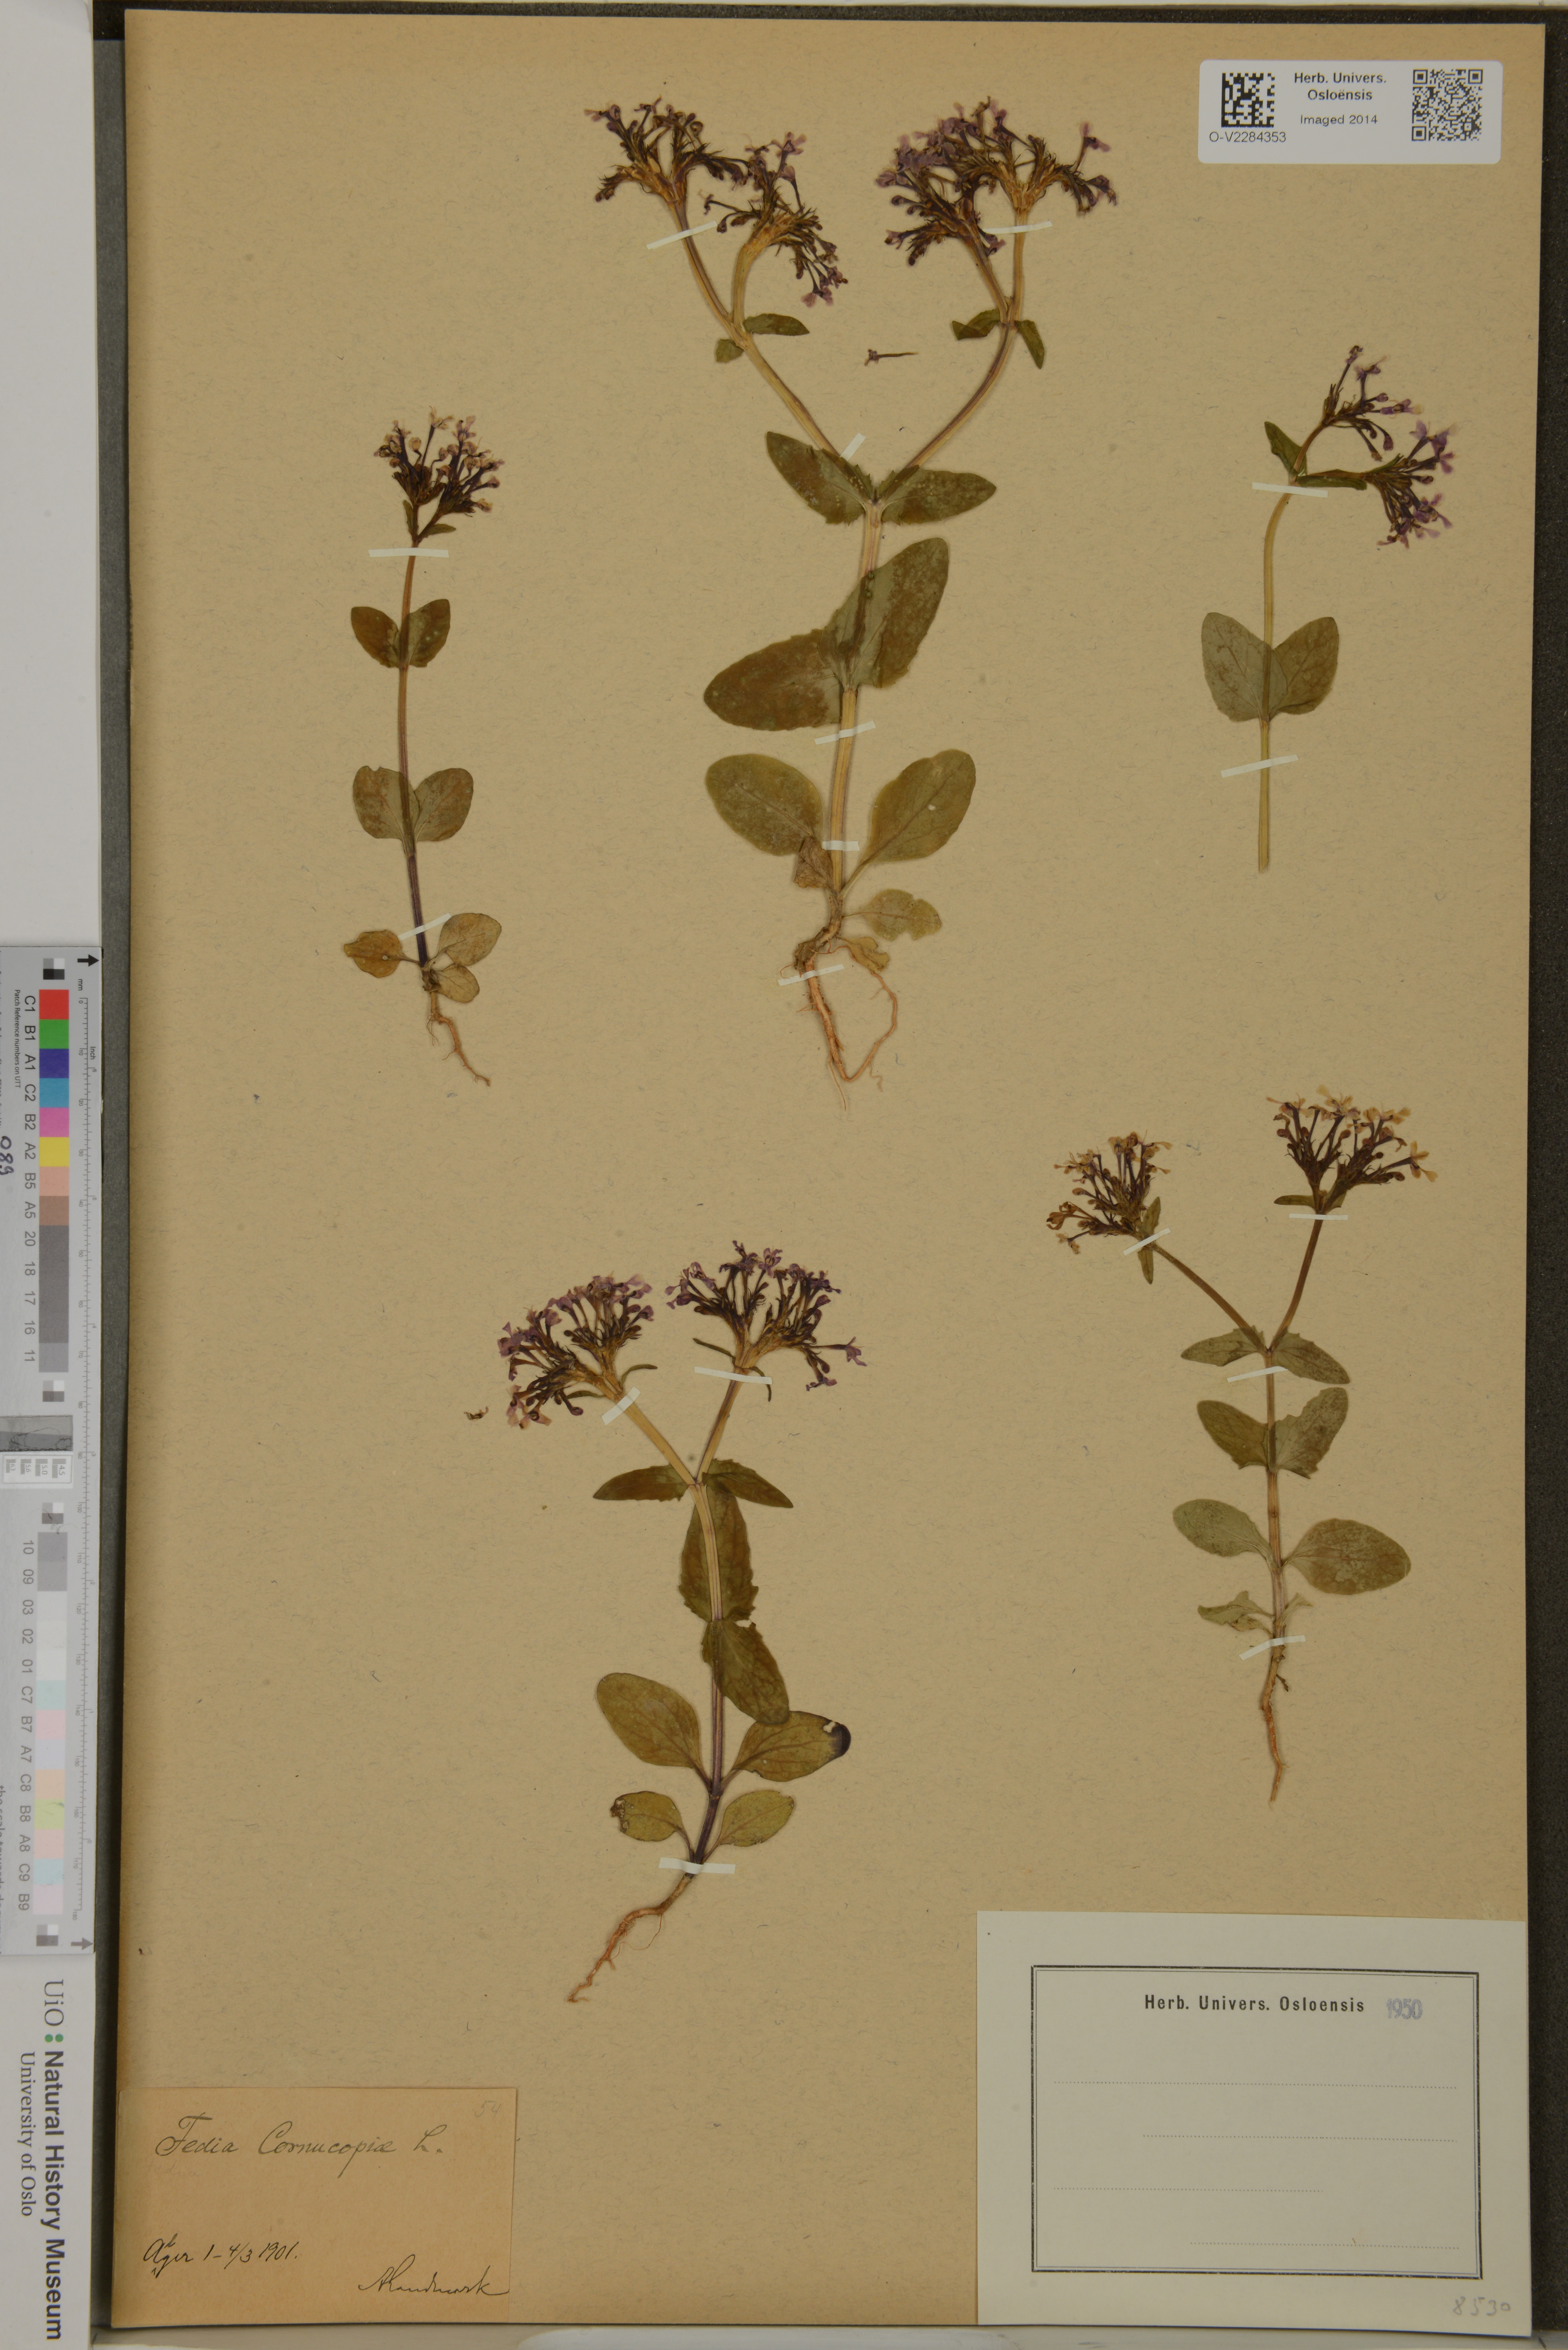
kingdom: Plantae
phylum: Tracheophyta
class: Magnoliopsida
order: Dipsacales
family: Caprifoliaceae
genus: Fedia
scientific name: Fedia cornucopiae
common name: Horn-of-plenty
